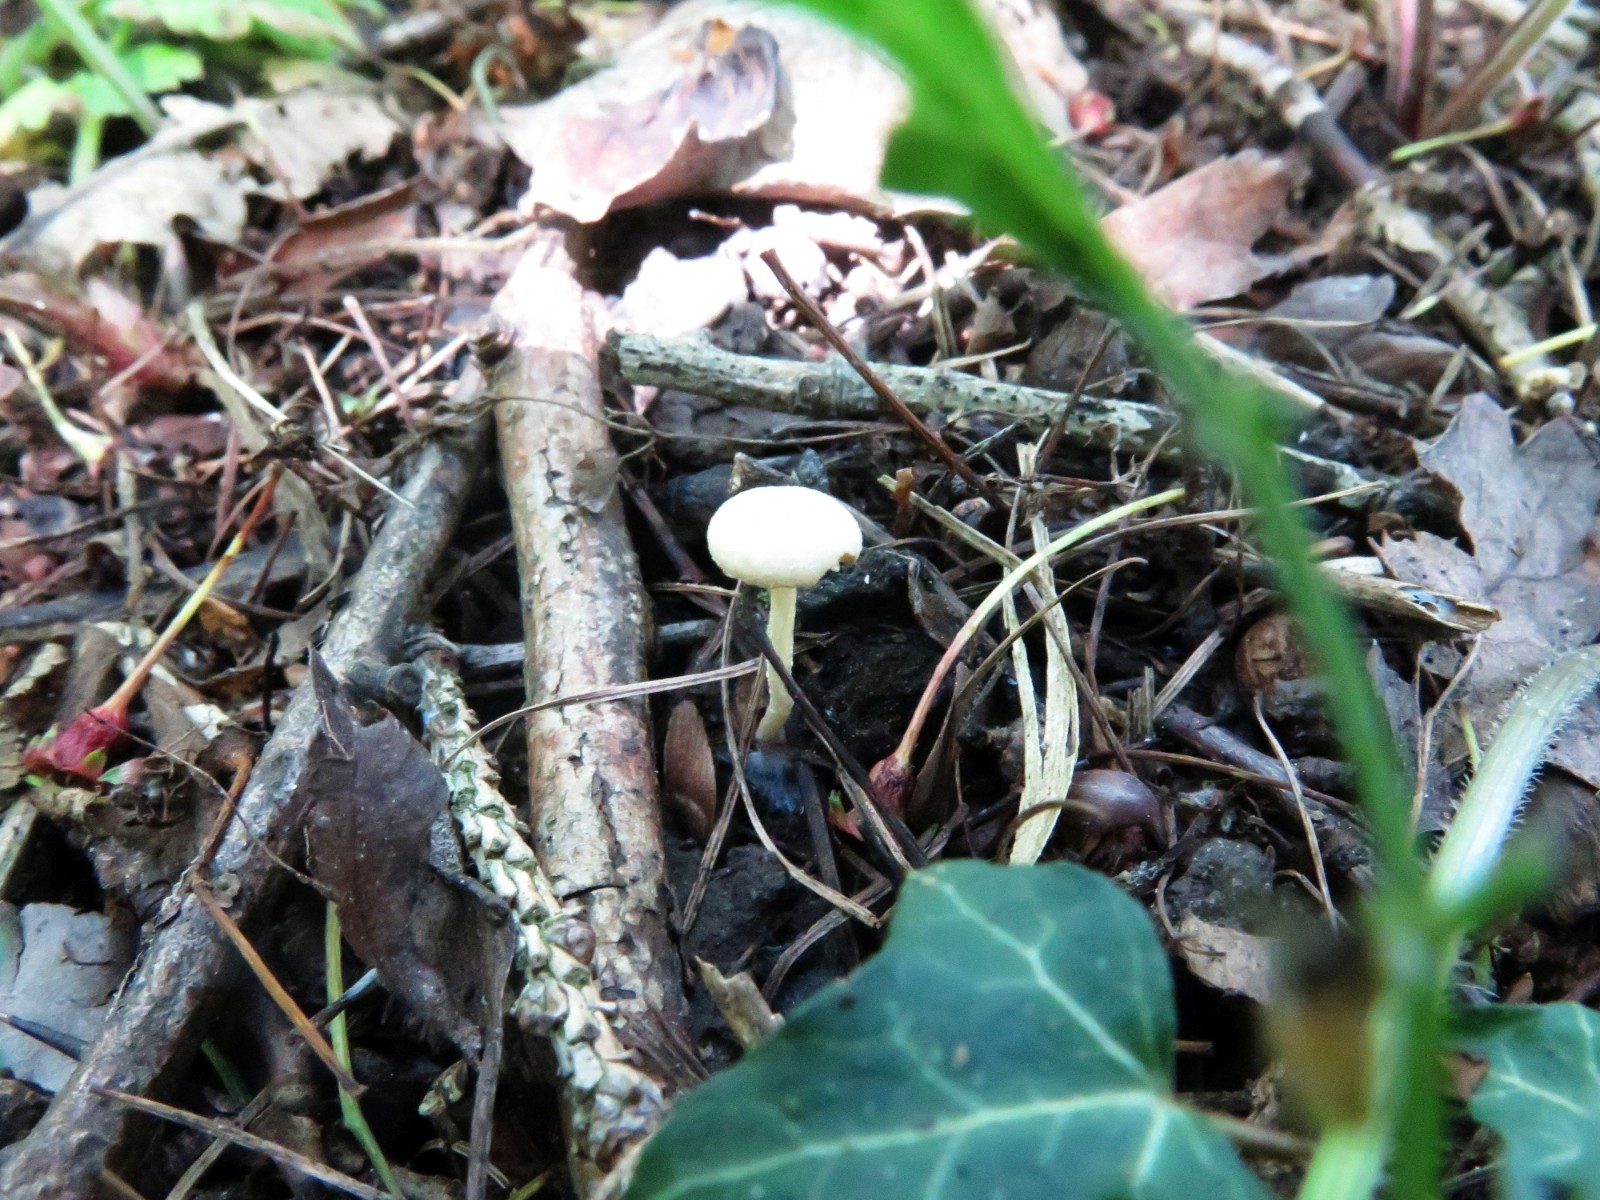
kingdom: Fungi
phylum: Basidiomycota
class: Agaricomycetes
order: Agaricales
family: Tubariaceae
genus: Tubaria
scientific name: Tubaria dispersa
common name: tjørne-fnughat
